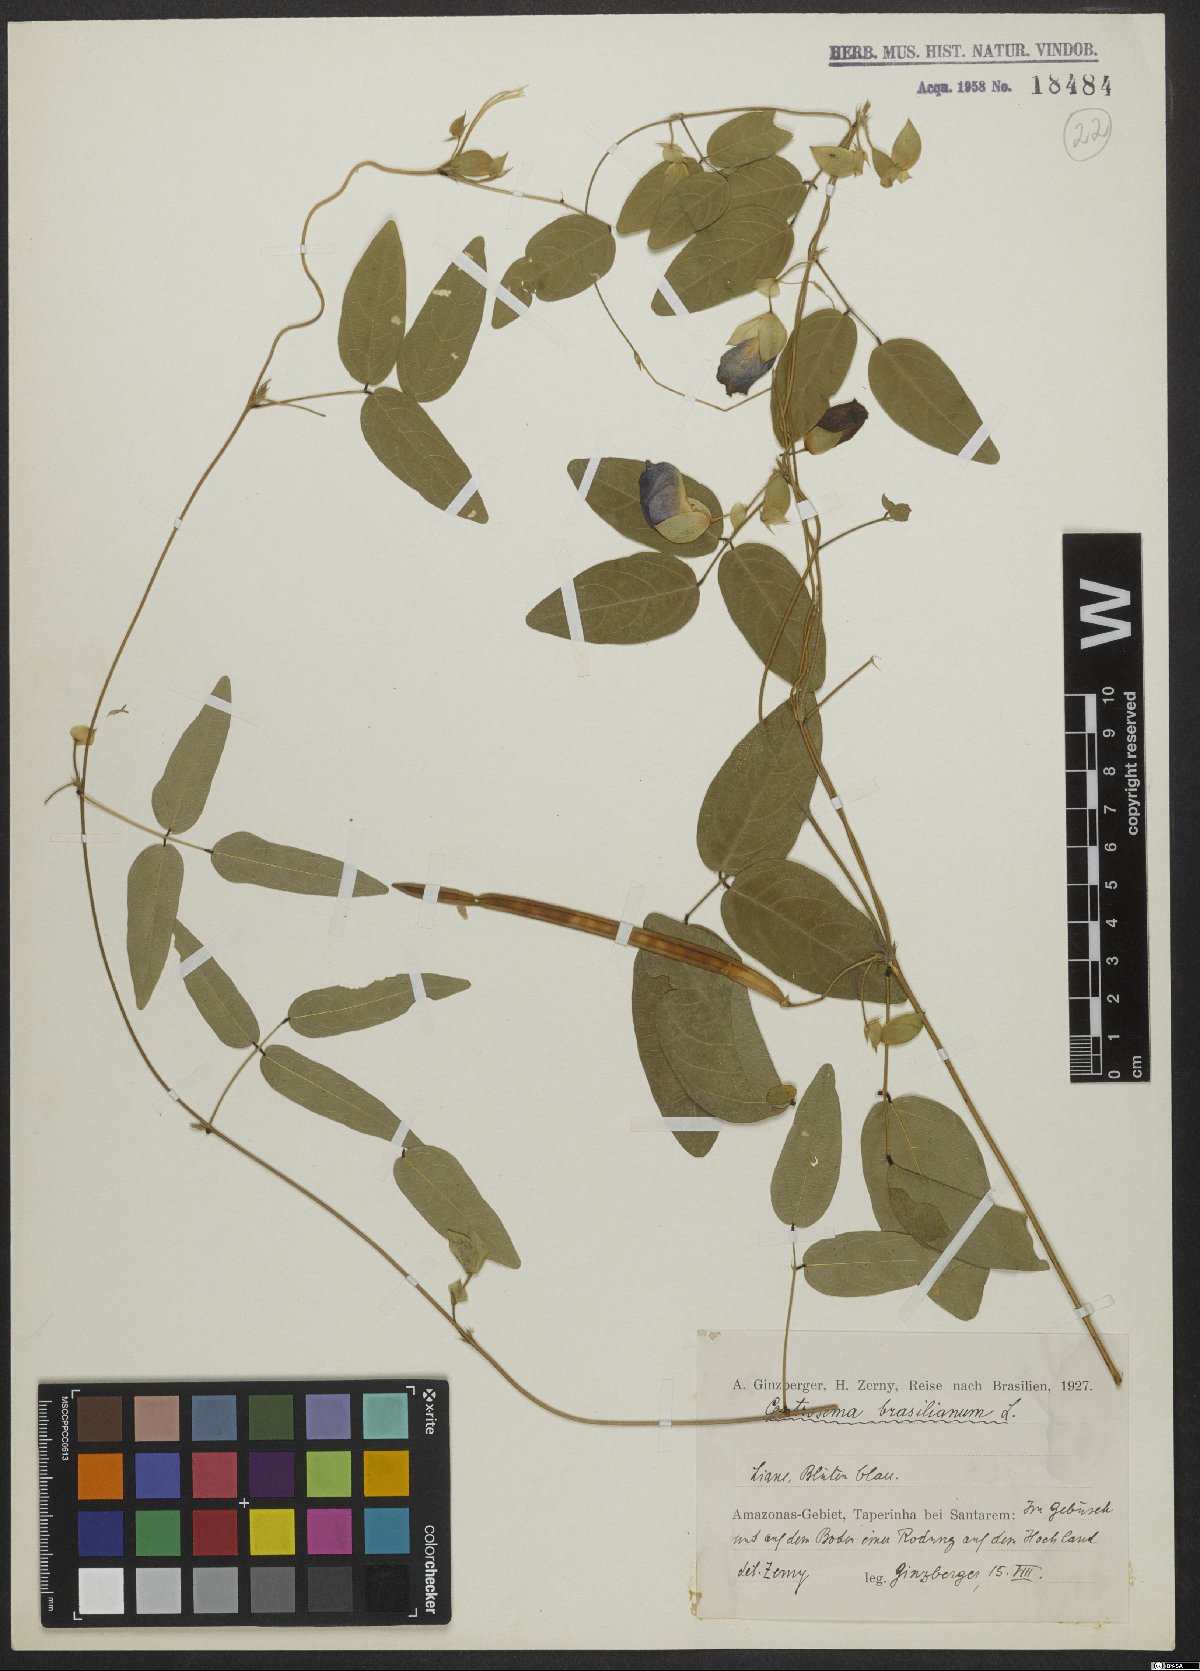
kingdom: Plantae
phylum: Tracheophyta
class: Magnoliopsida
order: Fabales
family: Fabaceae
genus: Centrosema
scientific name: Centrosema brasilianum
